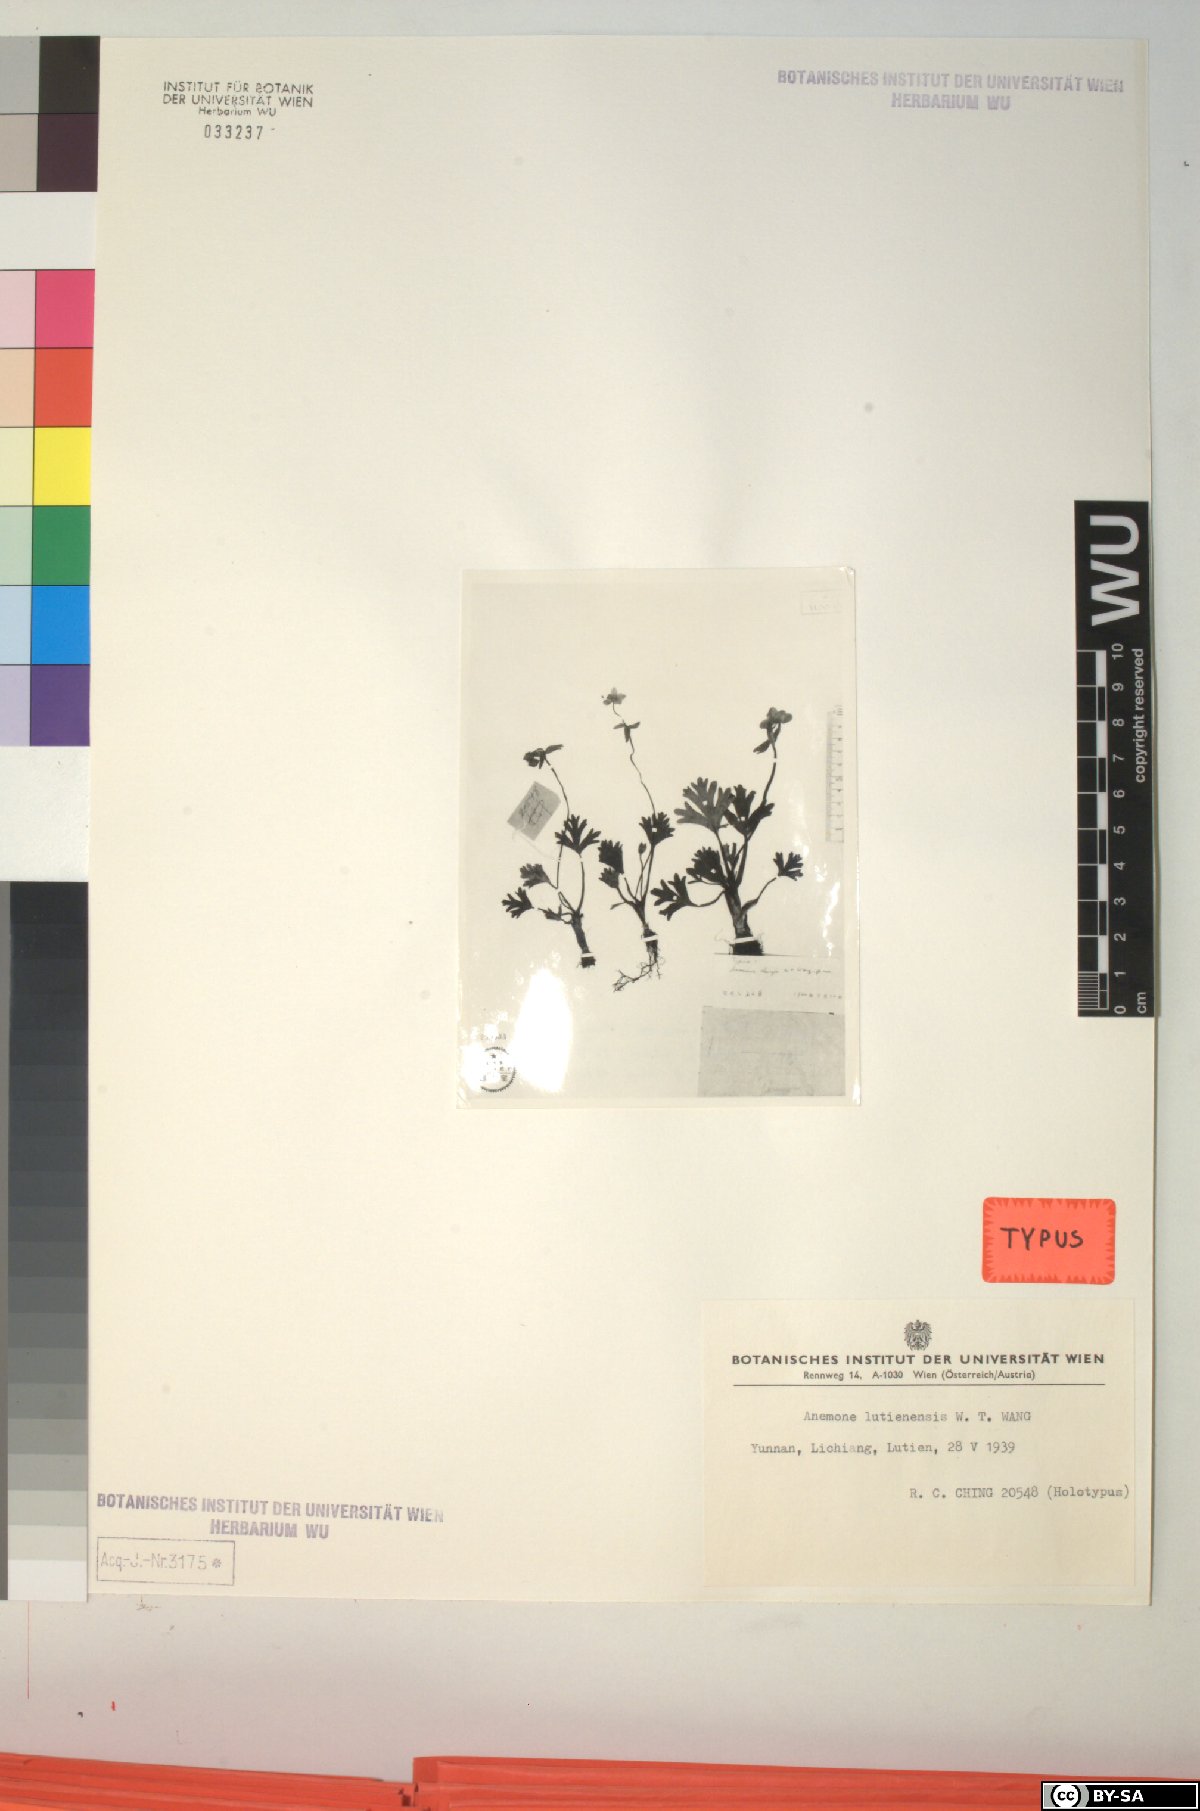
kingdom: Plantae
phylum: Tracheophyta
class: Magnoliopsida
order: Ranunculales
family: Ranunculaceae
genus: Anemonastrum
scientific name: Anemonastrum trullifolium
